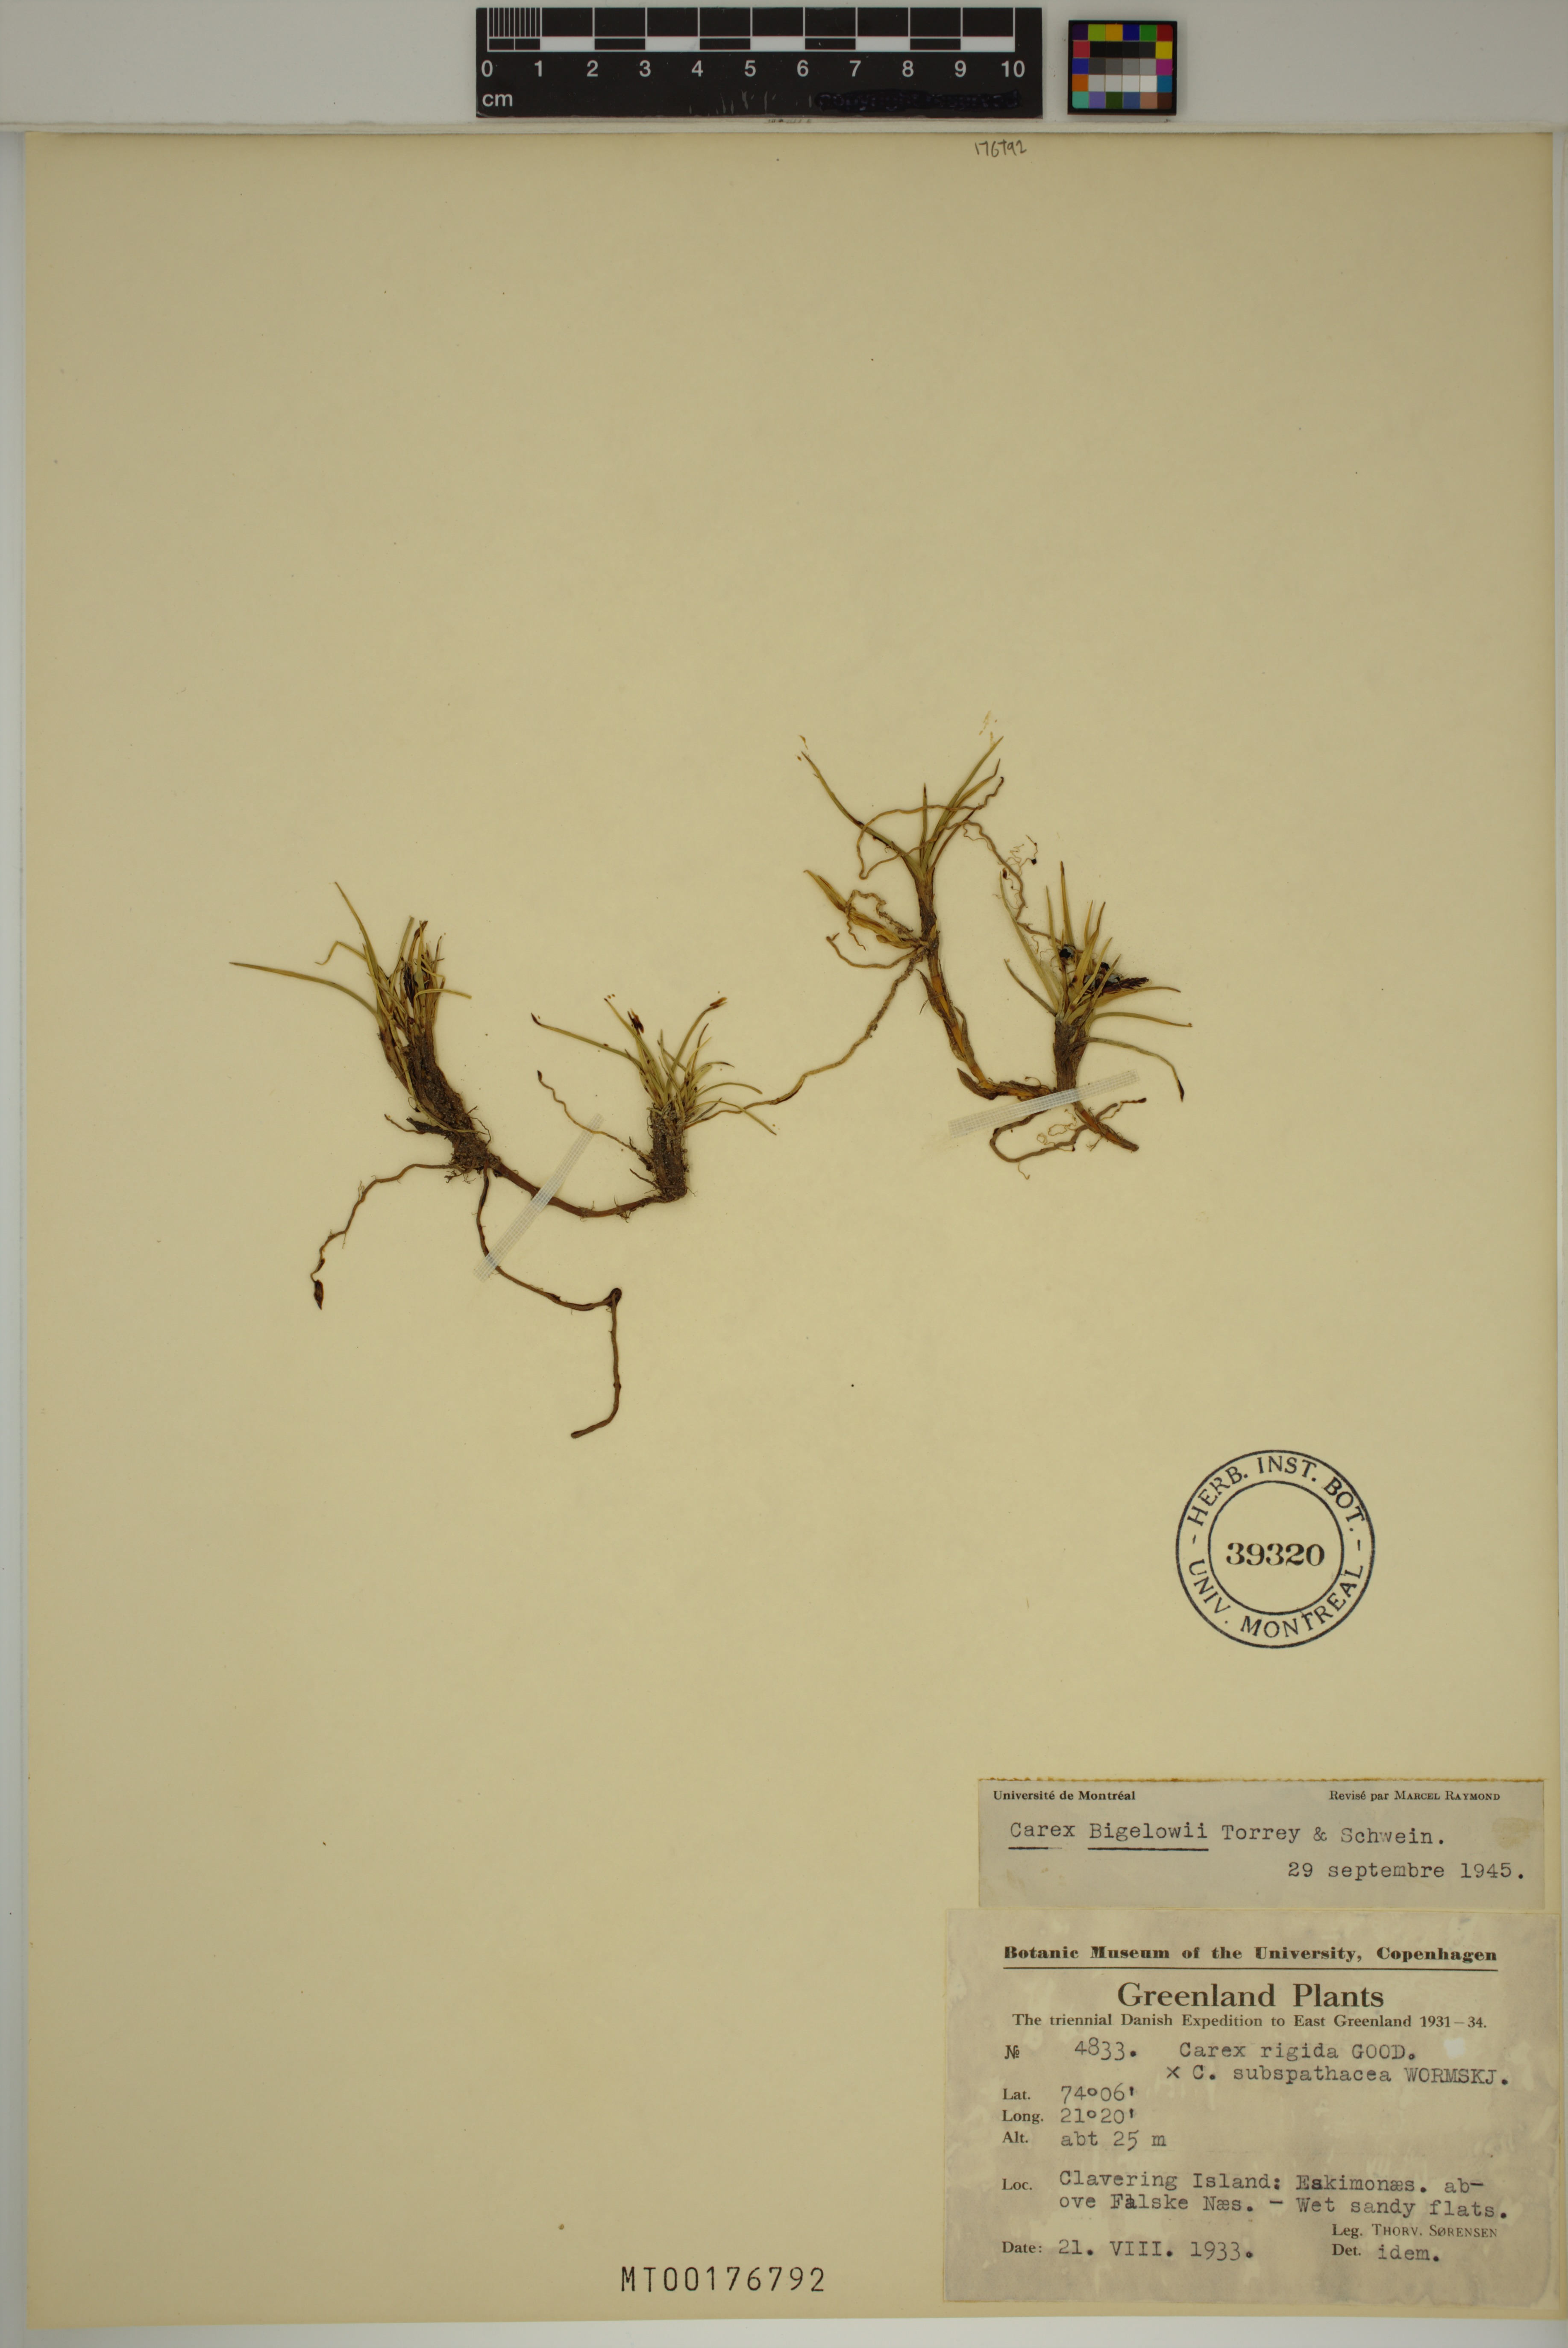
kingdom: Plantae
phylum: Tracheophyta
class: Liliopsida
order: Poales
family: Cyperaceae
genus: Carex
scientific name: Carex bigelowii
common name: Stiff sedge
